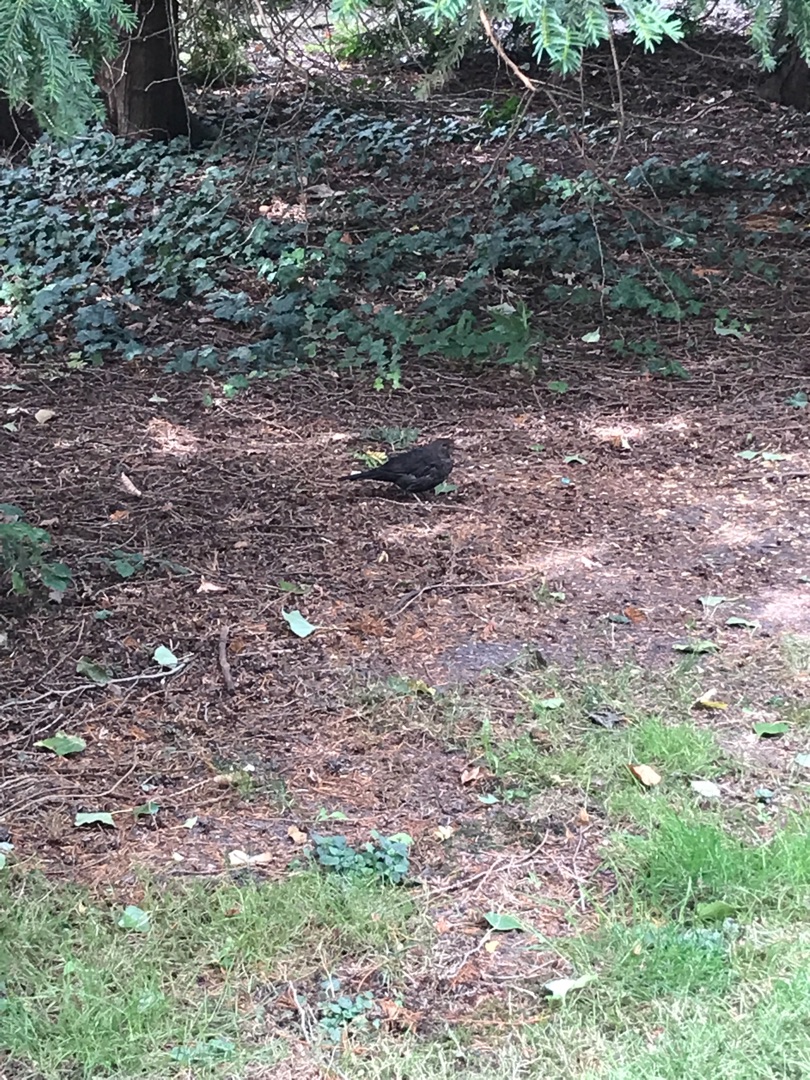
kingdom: Animalia
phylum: Chordata
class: Aves
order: Passeriformes
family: Turdidae
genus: Turdus
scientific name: Turdus merula
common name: Solsort
